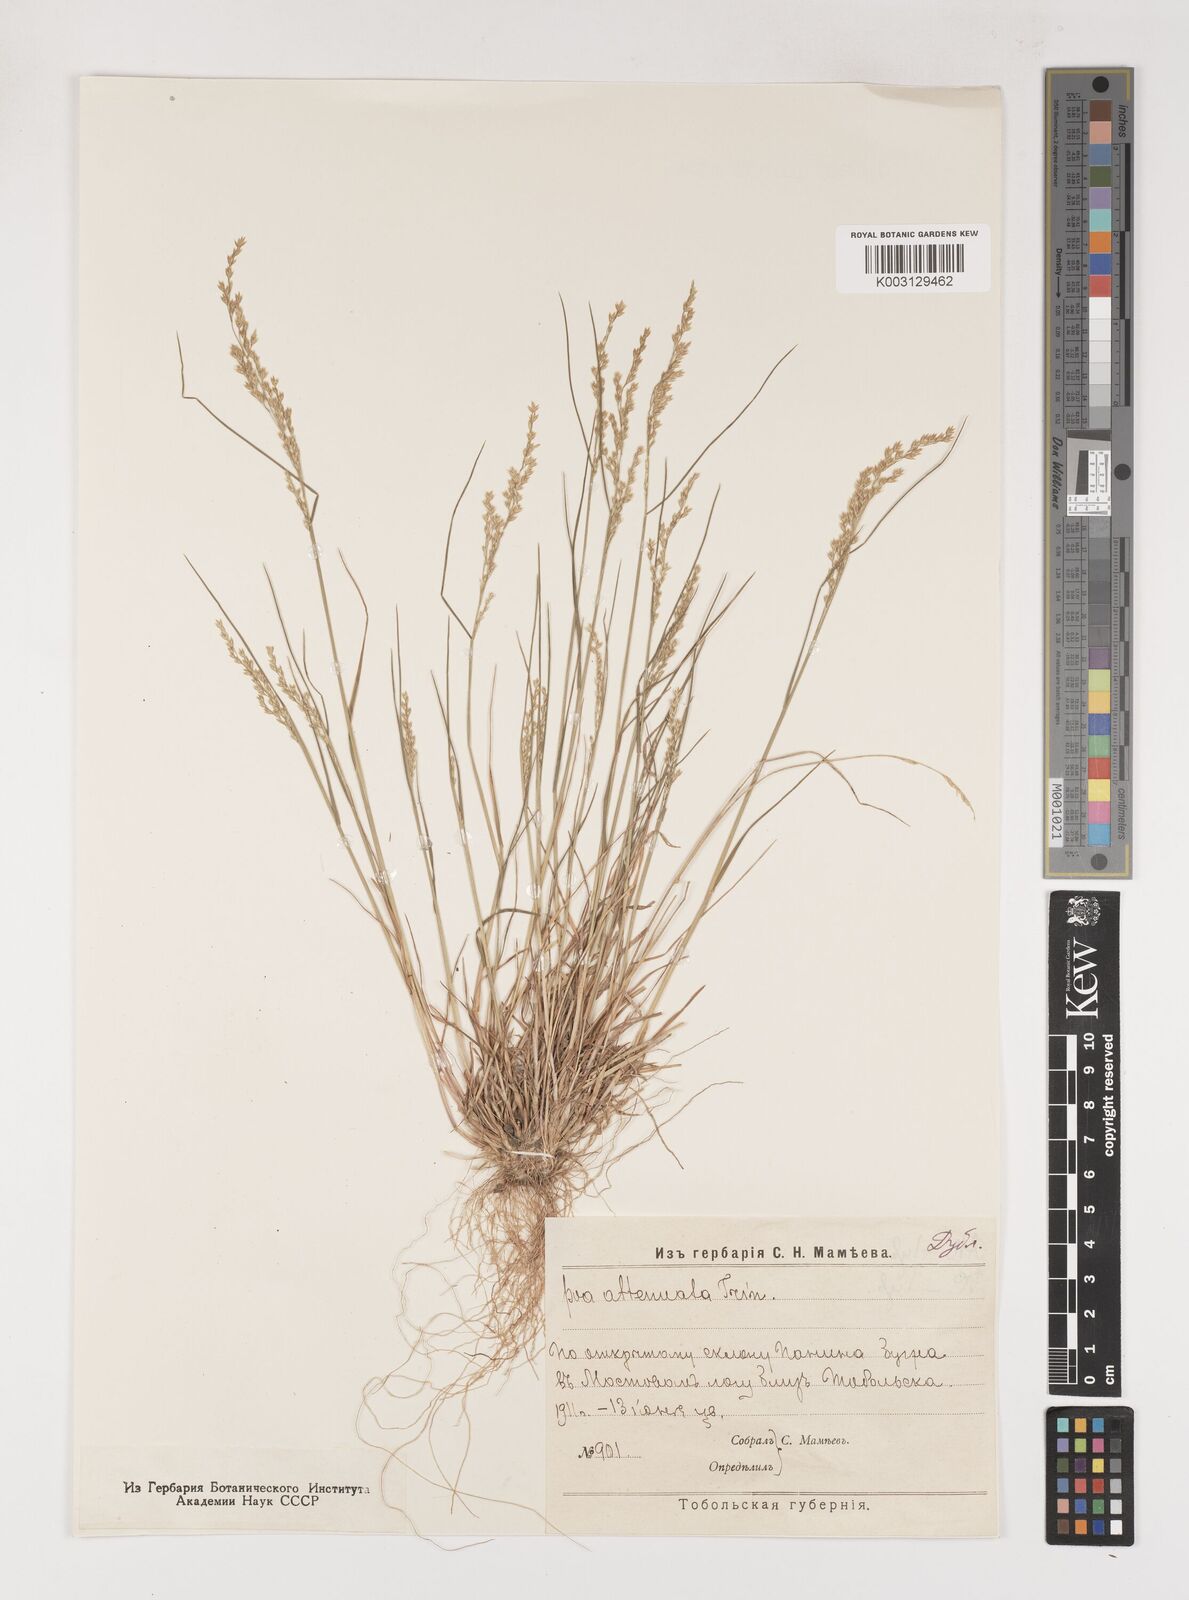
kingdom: Plantae
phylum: Tracheophyta
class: Liliopsida
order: Poales
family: Poaceae
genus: Poa
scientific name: Poa attenuata
